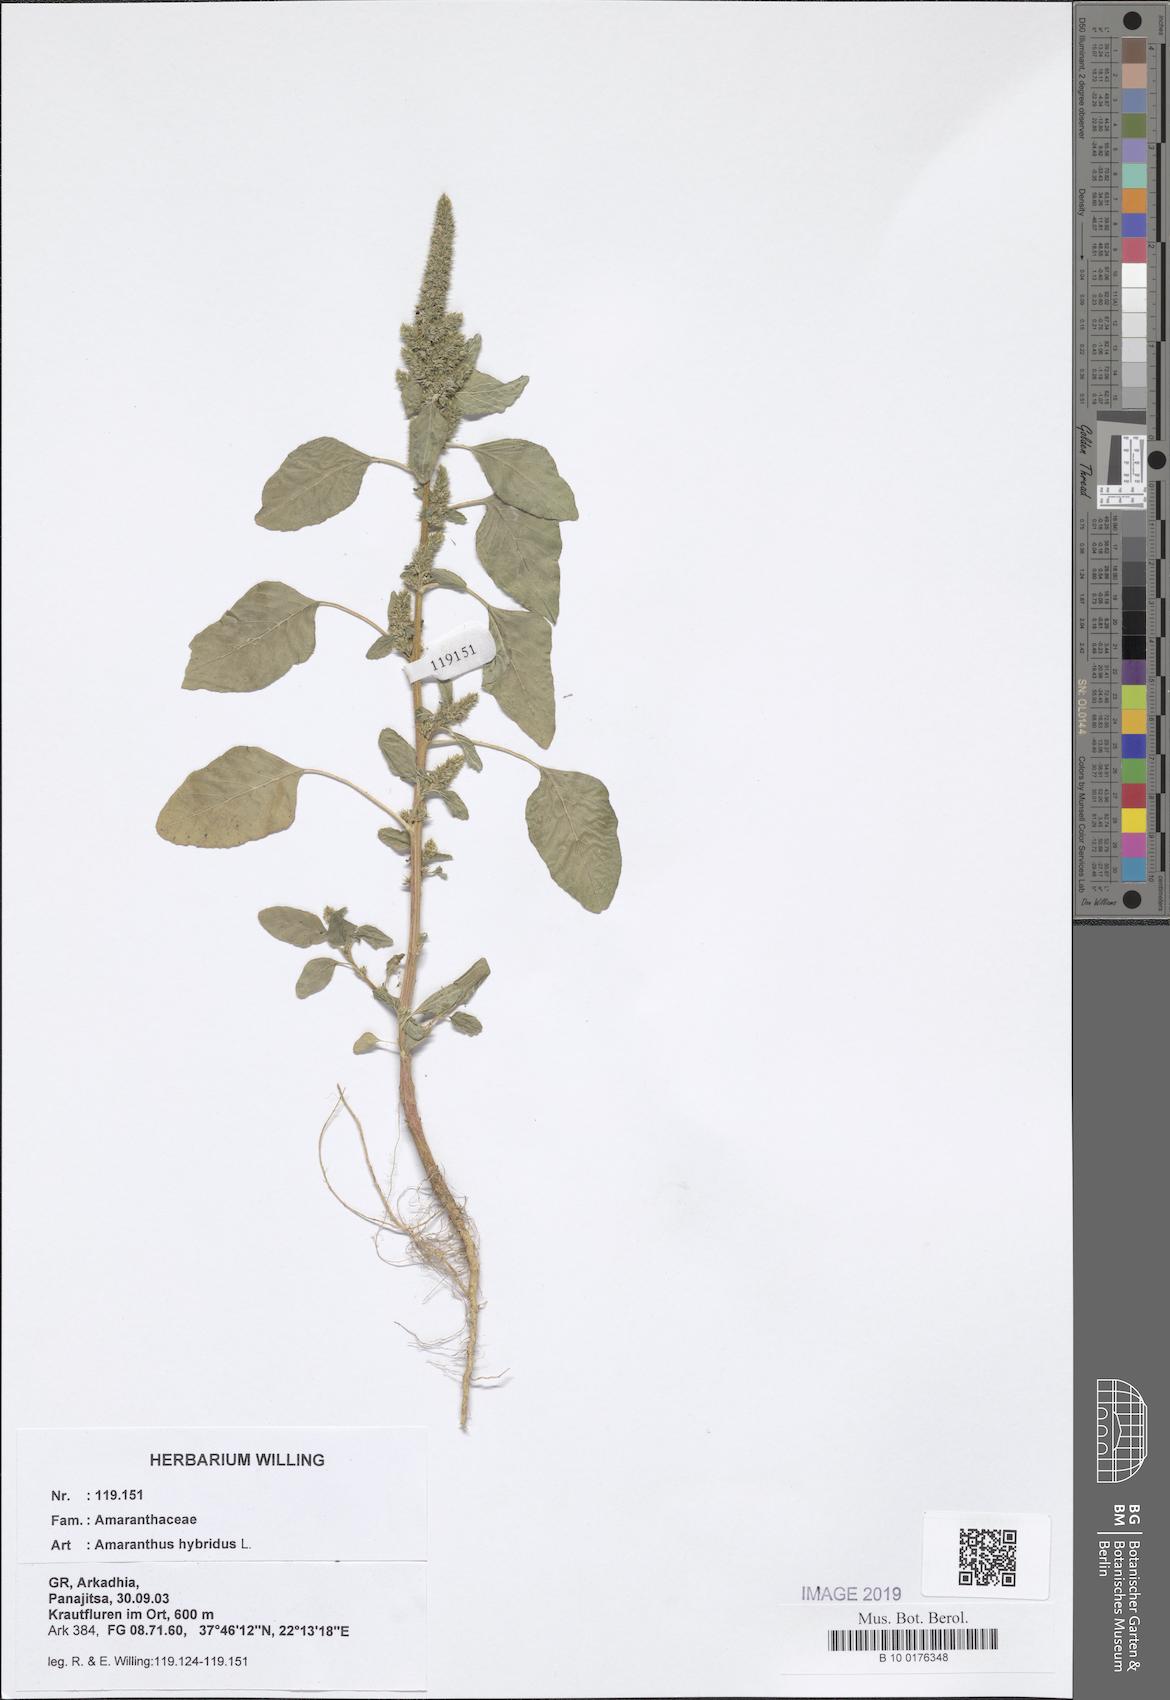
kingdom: Plantae
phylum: Tracheophyta
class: Magnoliopsida
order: Caryophyllales
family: Amaranthaceae
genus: Amaranthus
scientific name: Amaranthus hybridus
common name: Green amaranth
